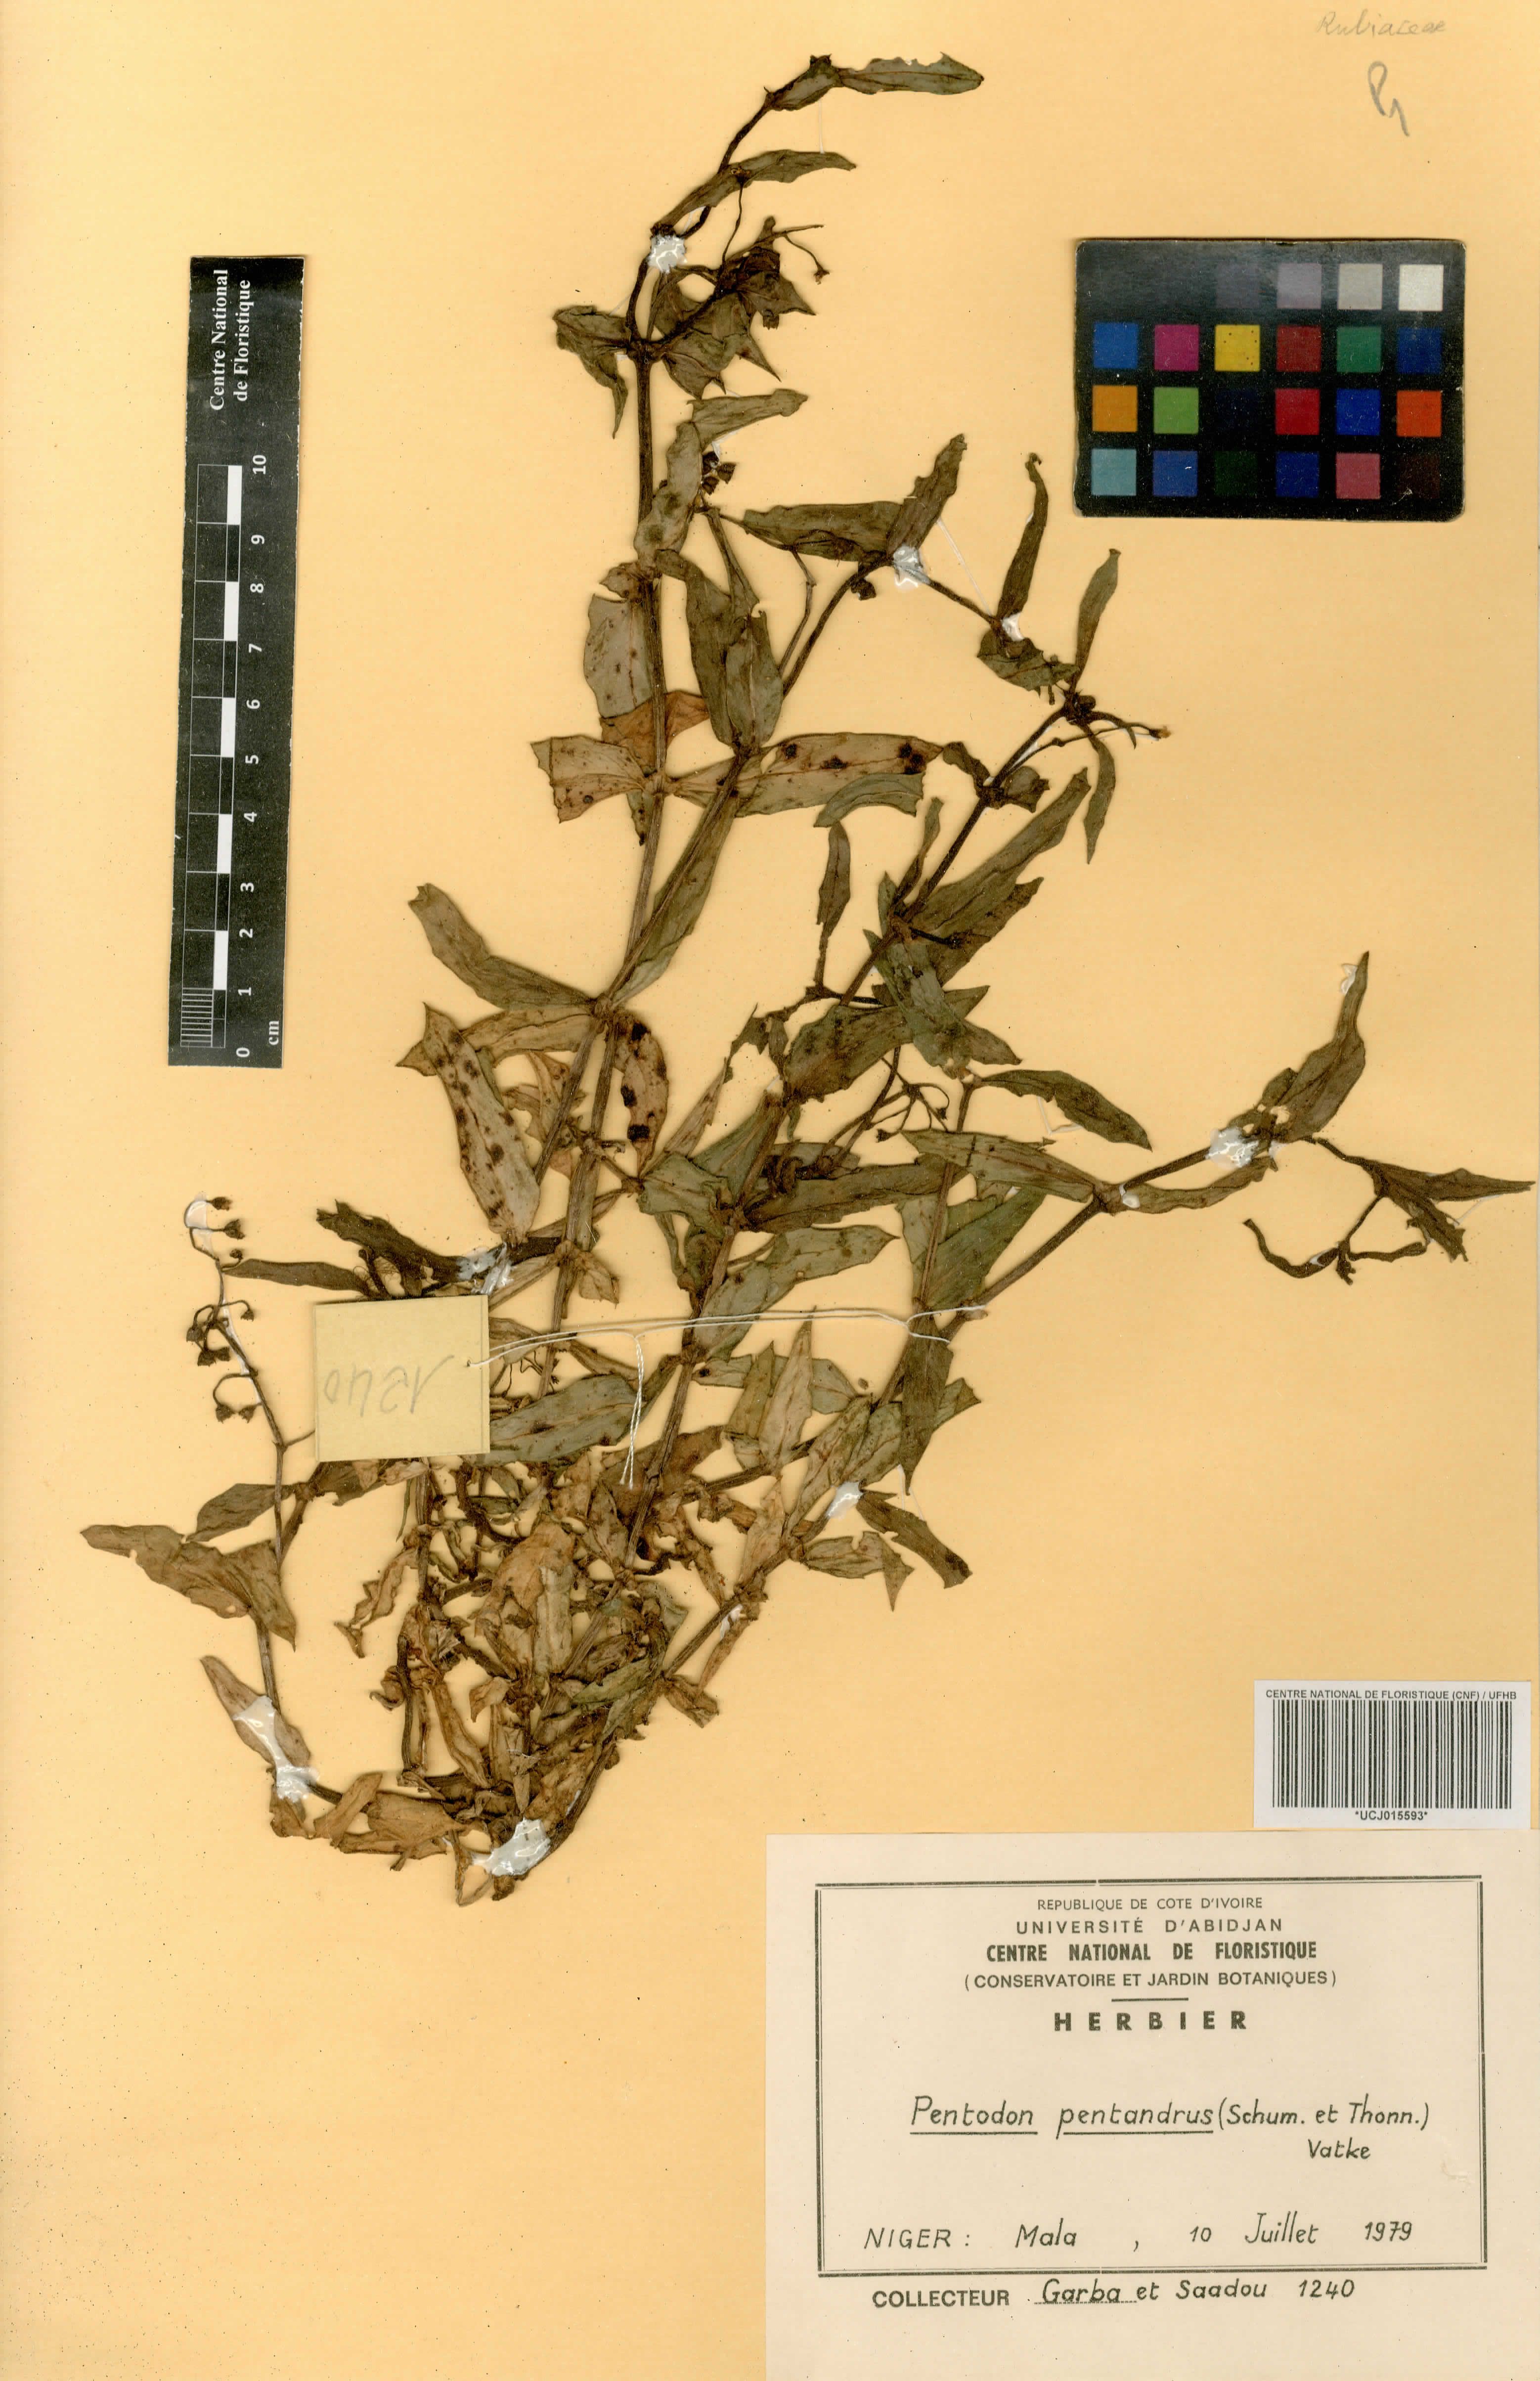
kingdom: Plantae
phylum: Tracheophyta
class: Magnoliopsida
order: Gentianales
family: Rubiaceae
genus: Pentodon
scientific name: Pentodon pentandrus
